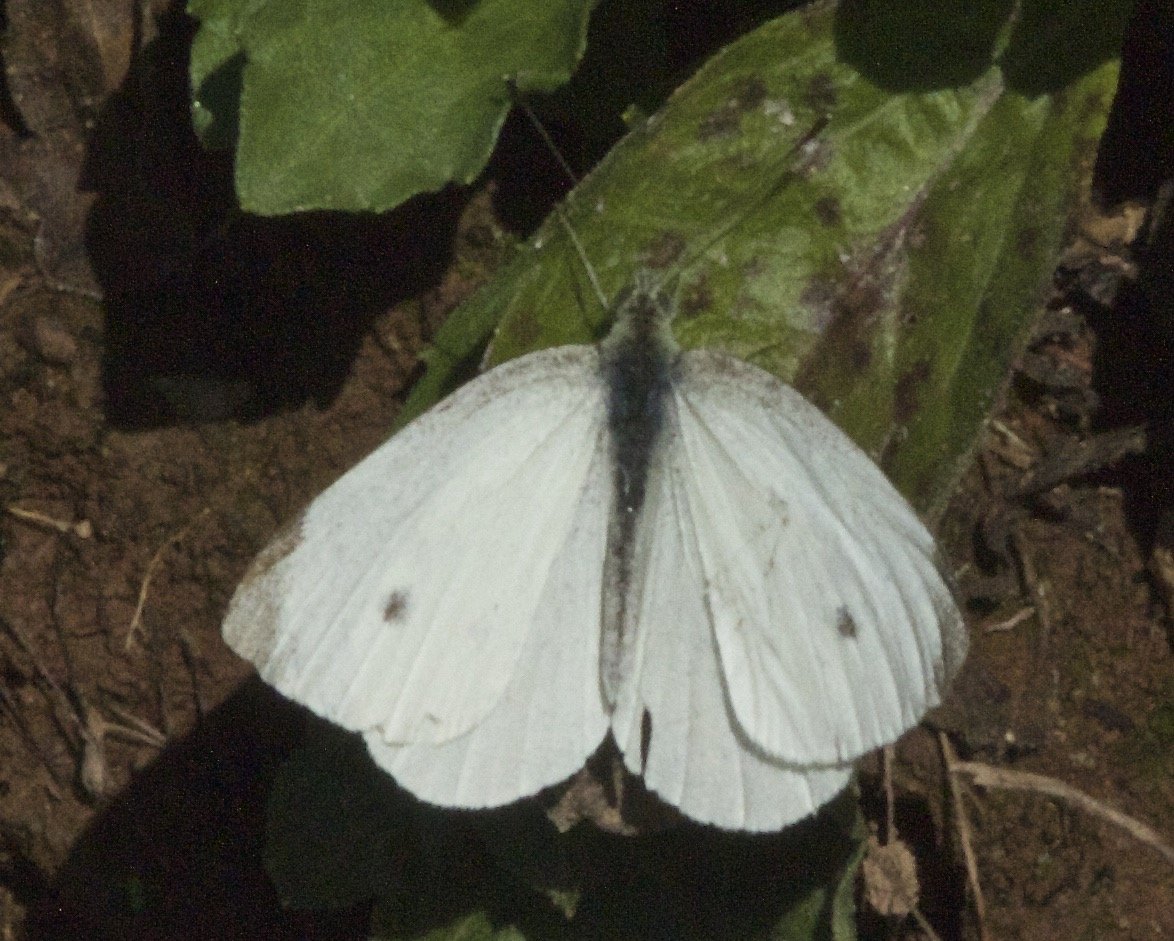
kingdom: Animalia
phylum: Arthropoda
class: Insecta
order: Lepidoptera
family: Pieridae
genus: Pieris
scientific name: Pieris rapae
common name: Cabbage White
